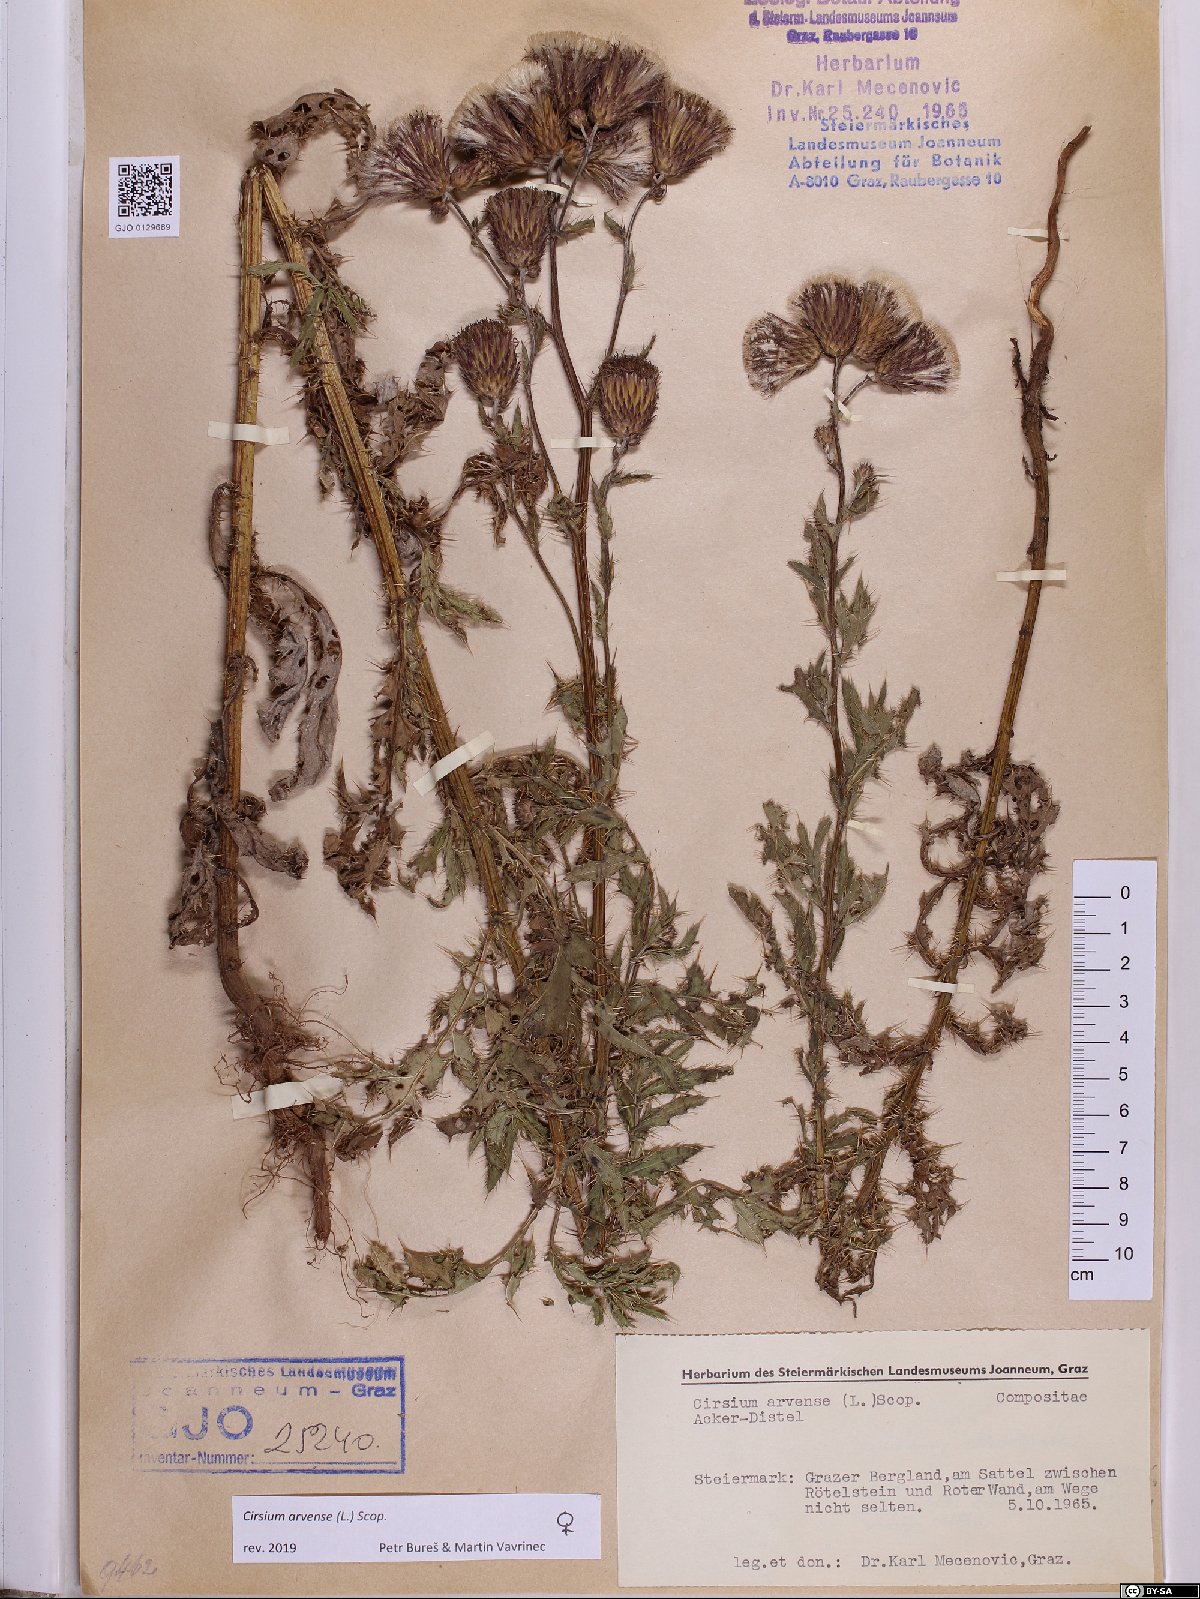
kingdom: Plantae
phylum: Tracheophyta
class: Magnoliopsida
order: Asterales
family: Asteraceae
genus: Cirsium
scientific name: Cirsium arvense
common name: Creeping thistle
